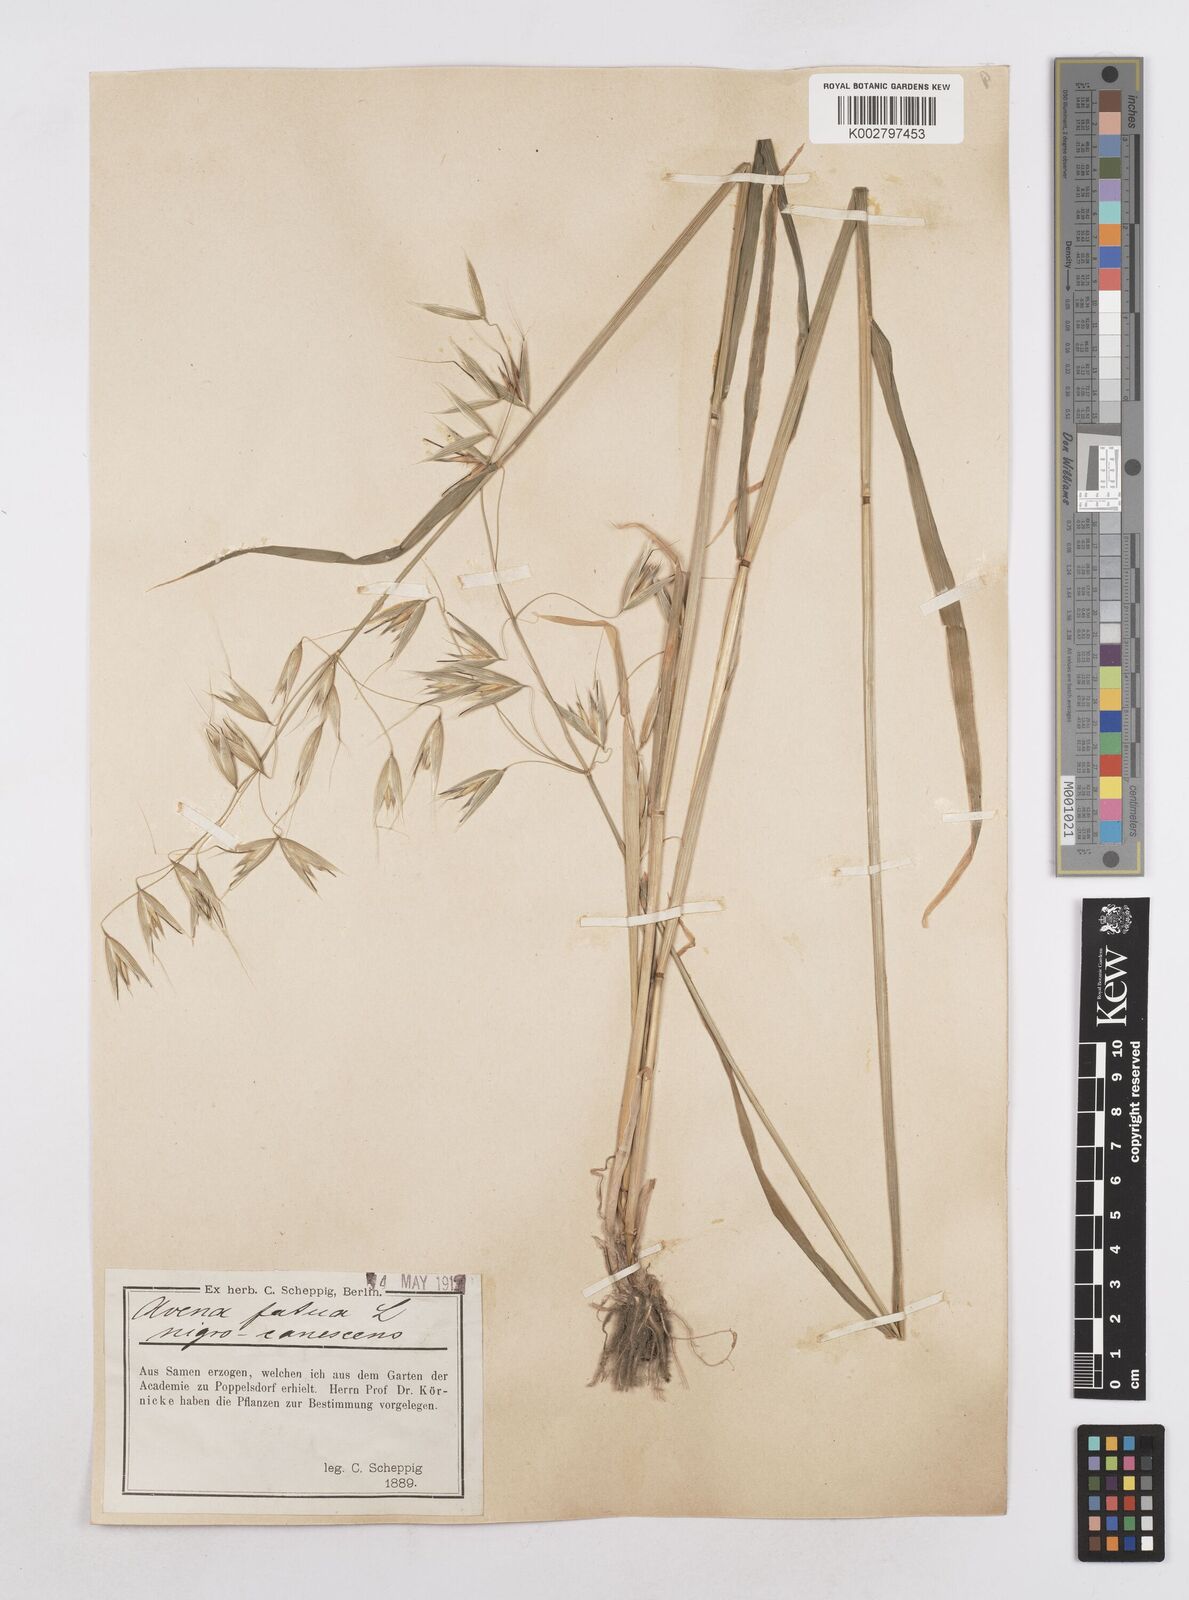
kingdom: Plantae
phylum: Tracheophyta
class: Liliopsida
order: Poales
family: Poaceae
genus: Avena
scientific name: Avena fatua
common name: Wild oat
